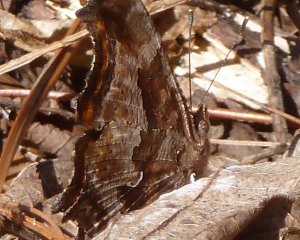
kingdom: Animalia
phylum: Arthropoda
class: Insecta
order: Lepidoptera
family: Nymphalidae
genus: Polygonia
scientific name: Polygonia comma
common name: Eastern Comma
